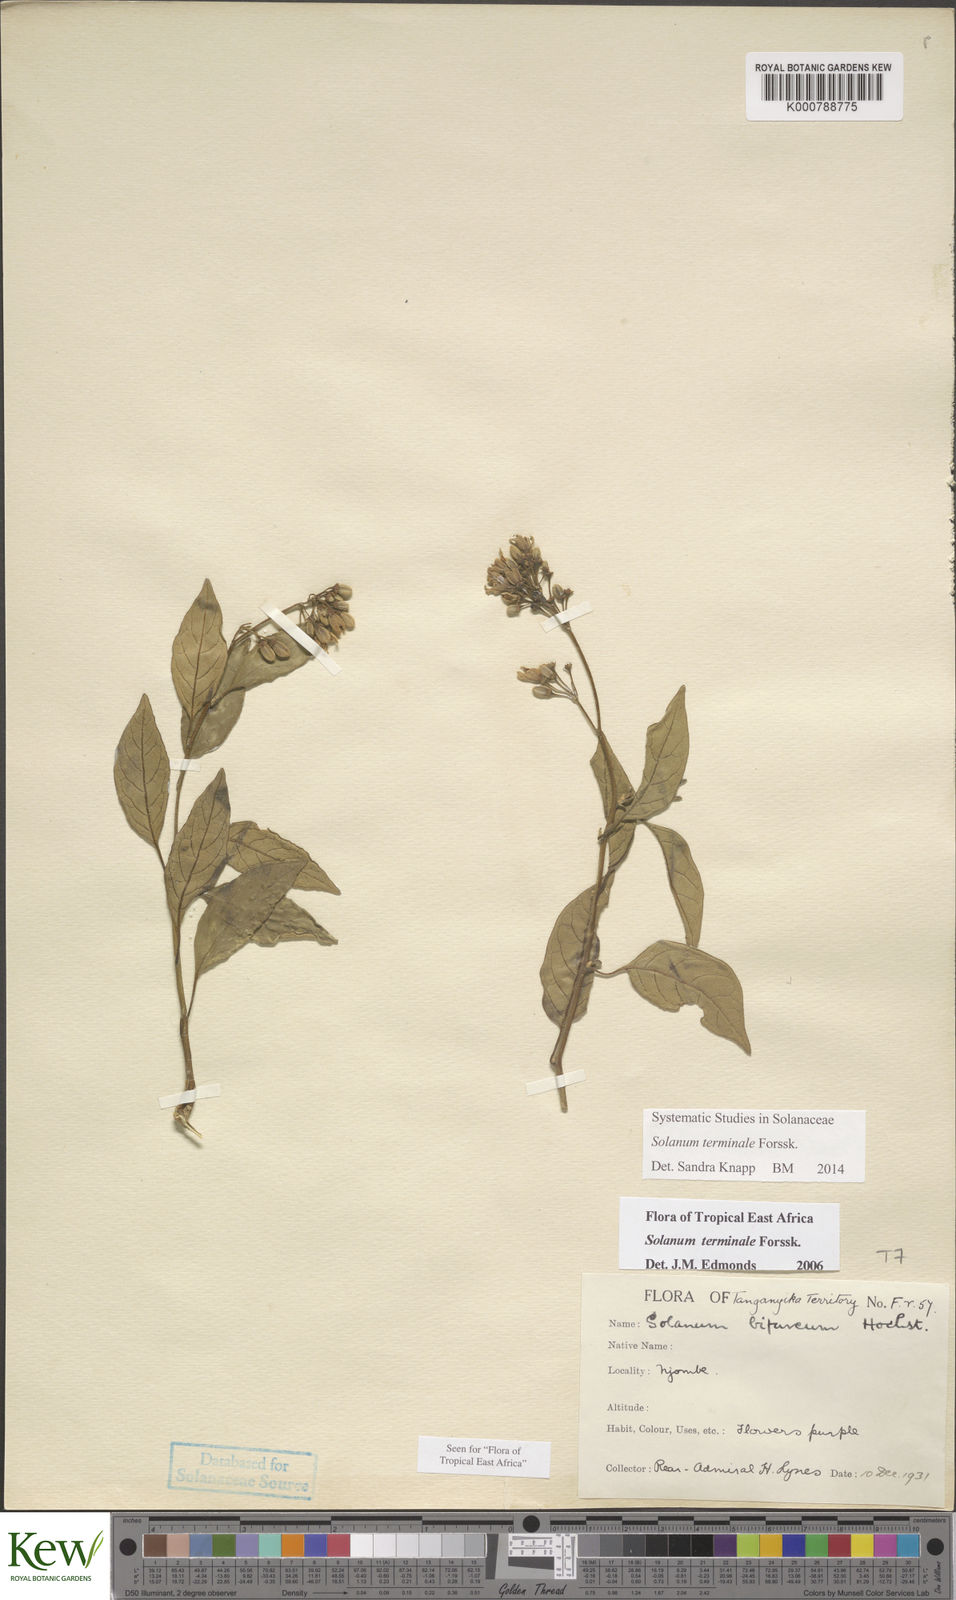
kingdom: Plantae
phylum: Tracheophyta
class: Magnoliopsida
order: Solanales
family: Solanaceae
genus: Solanum
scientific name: Solanum terminale
